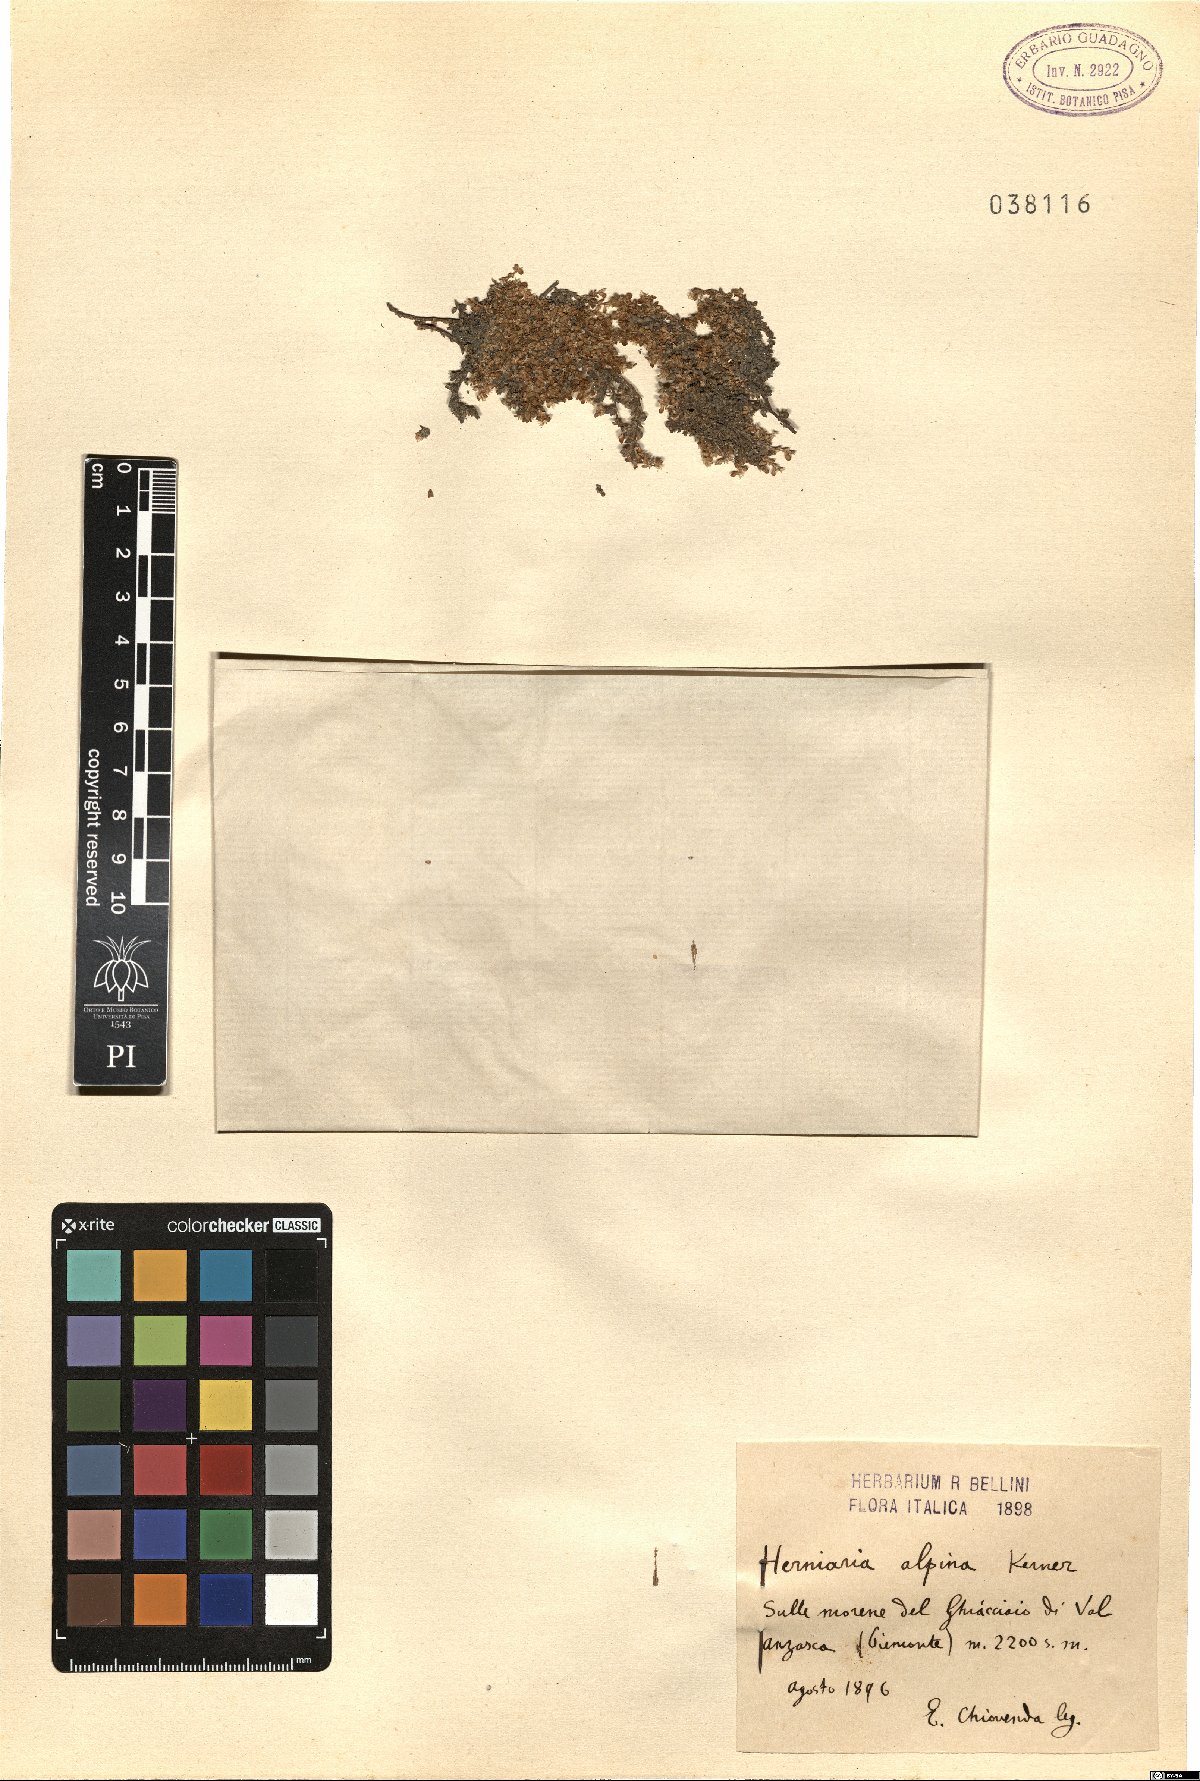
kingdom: Plantae
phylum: Tracheophyta
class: Magnoliopsida
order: Caryophyllales
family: Caryophyllaceae
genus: Herniaria
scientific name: Herniaria alpina
